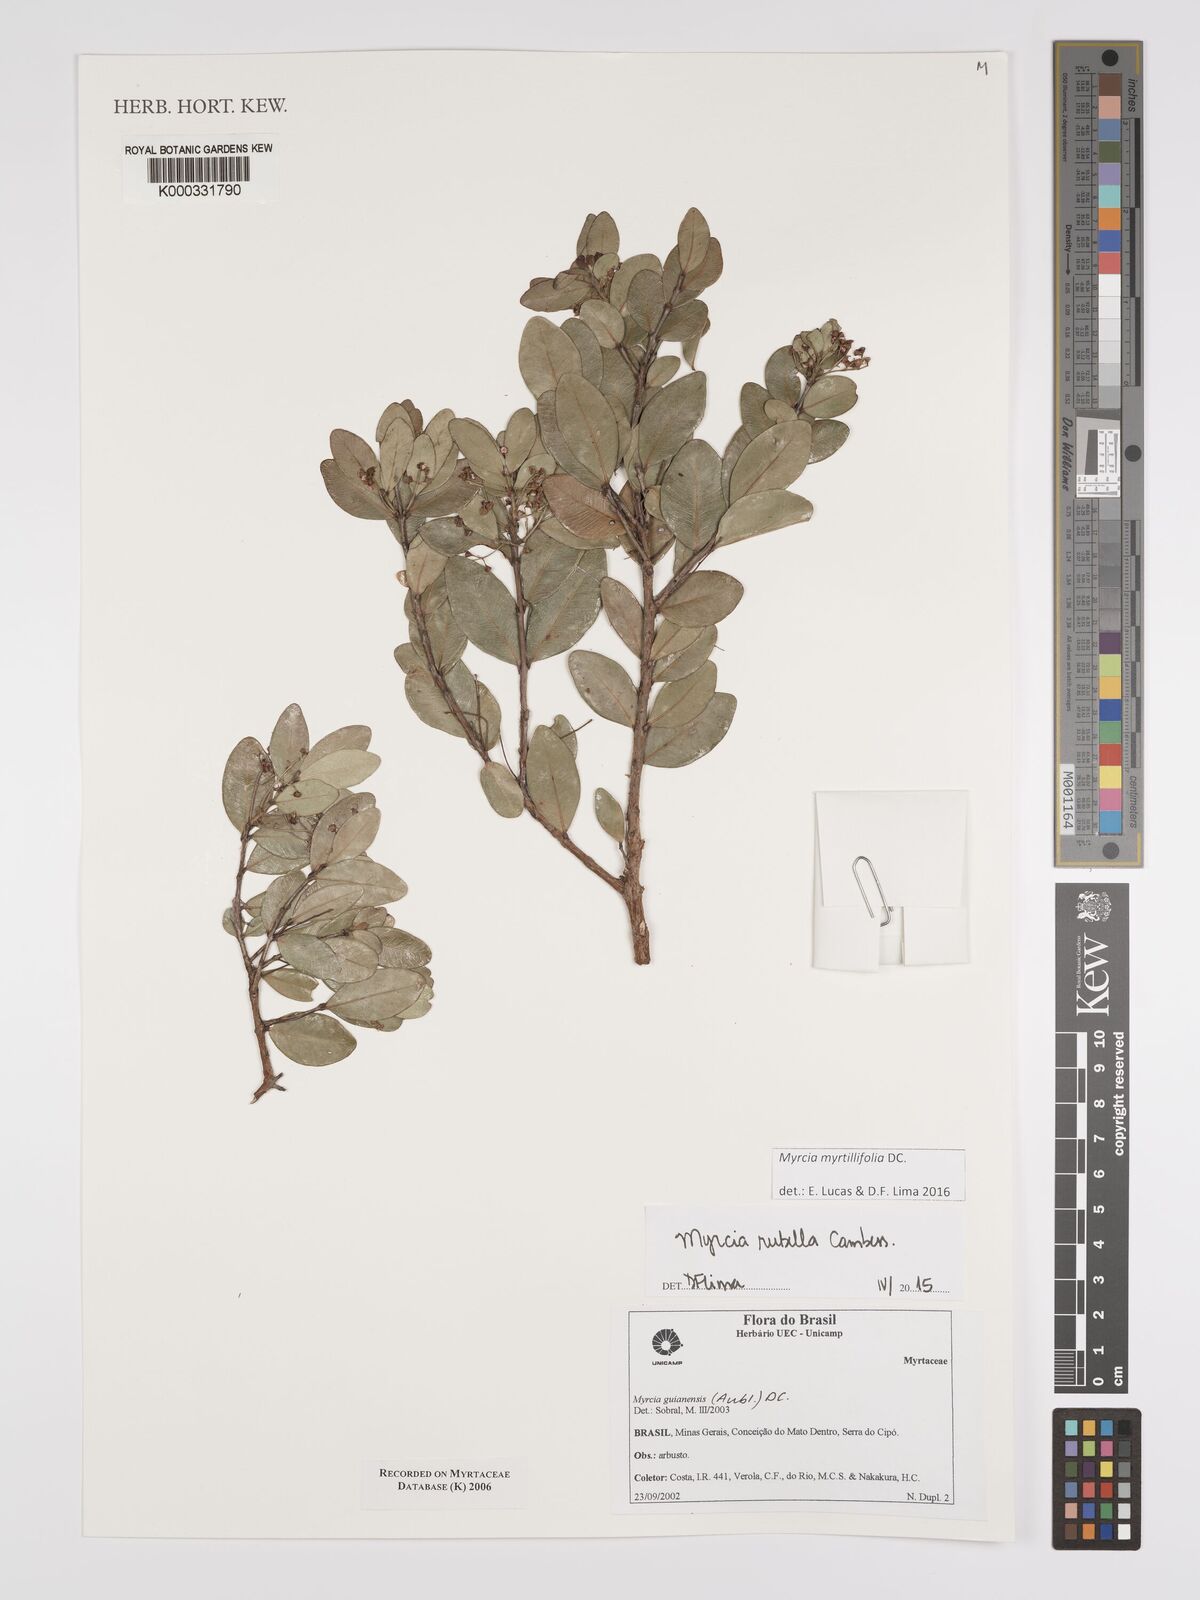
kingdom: Plantae
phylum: Tracheophyta
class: Magnoliopsida
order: Myrtales
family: Myrtaceae
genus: Myrcia
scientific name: Myrcia guianensis
